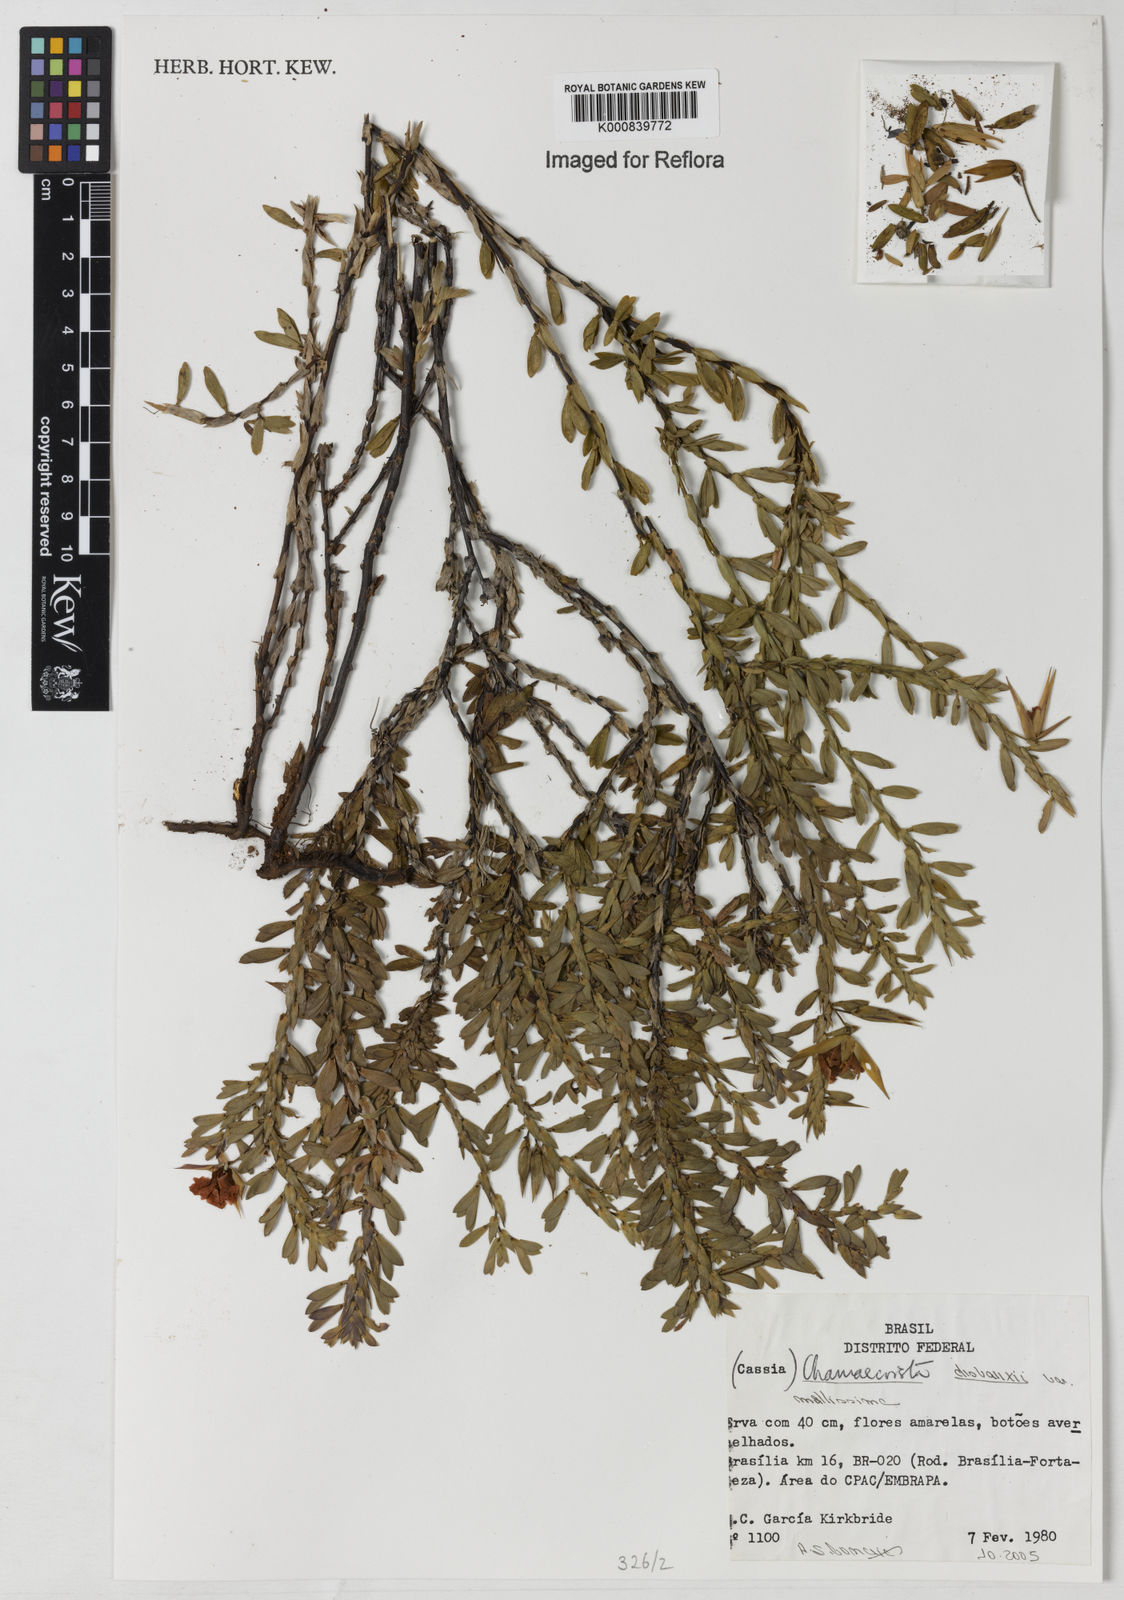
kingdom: Plantae
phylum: Tracheophyta
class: Magnoliopsida
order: Fabales
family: Fabaceae
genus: Chamaecrista
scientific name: Chamaecrista desvauxii
